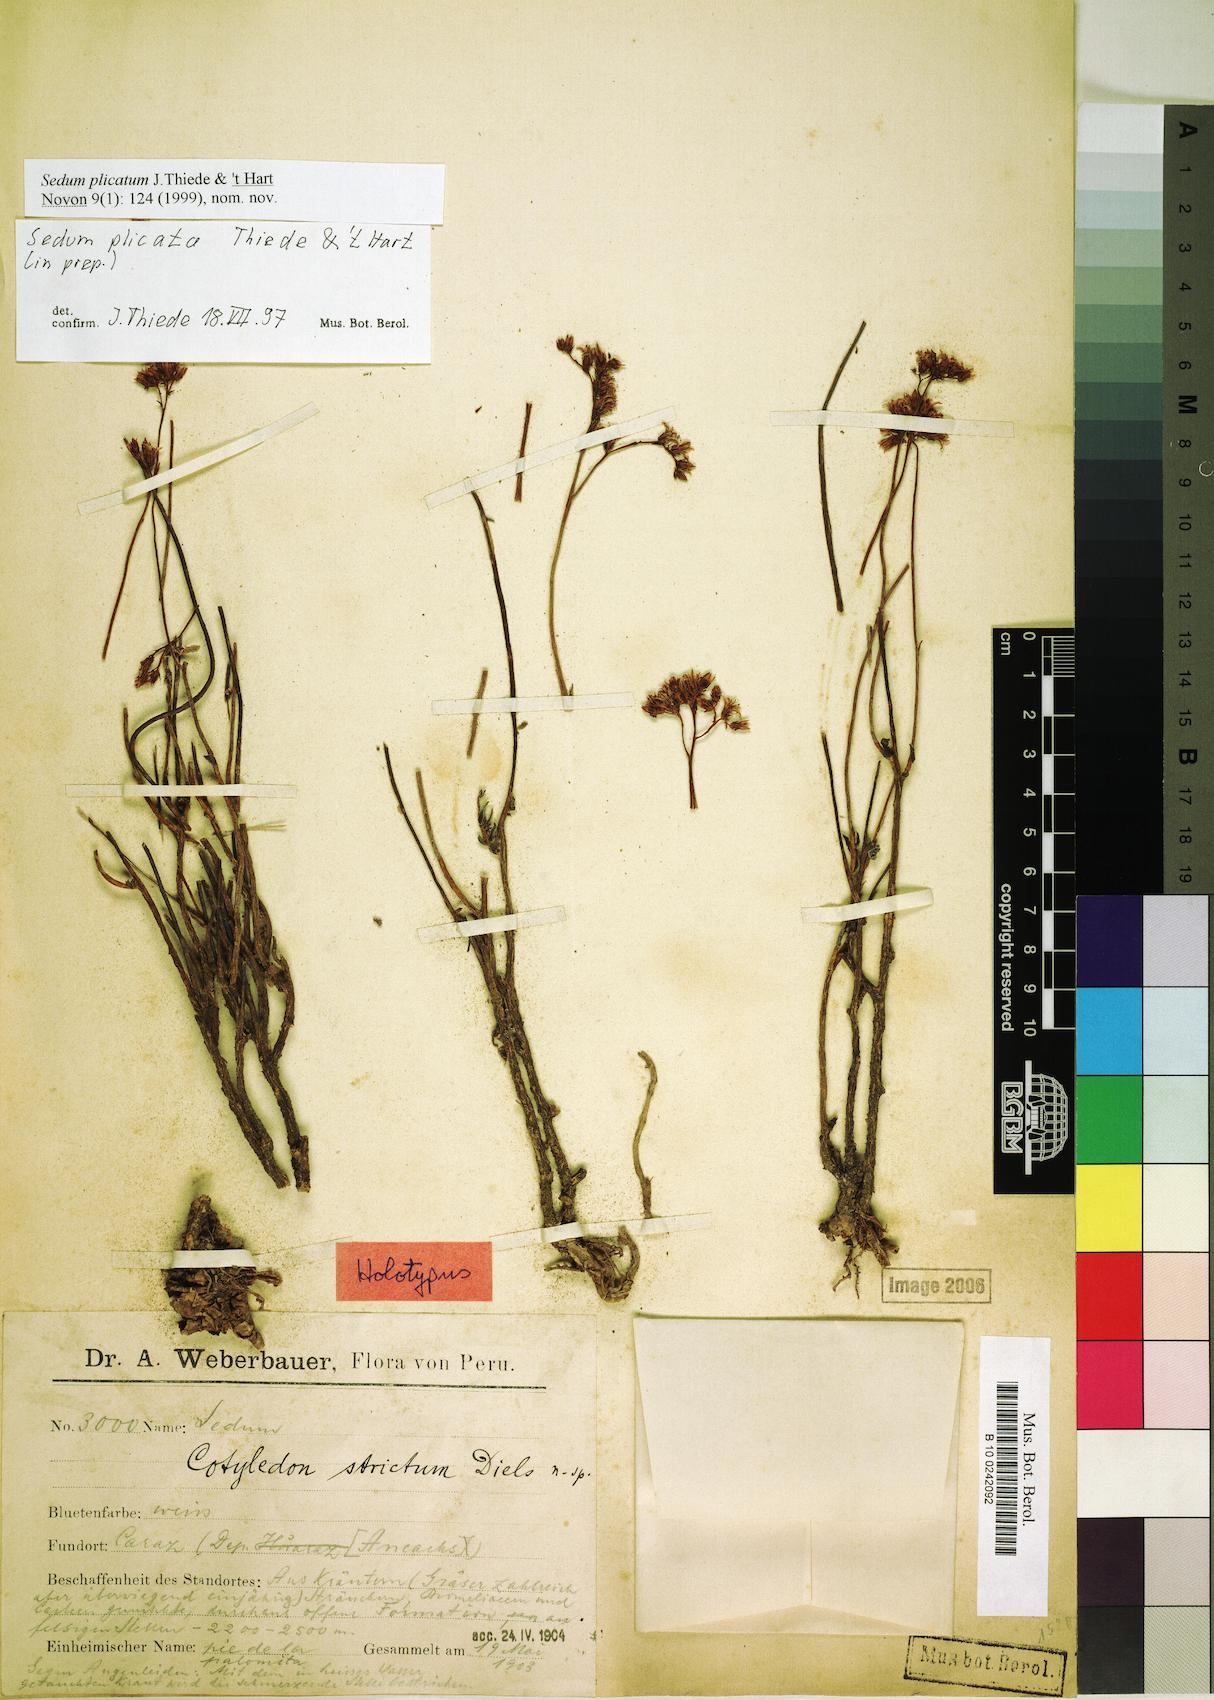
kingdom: Plantae
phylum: Tracheophyta
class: Magnoliopsida
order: Saxifragales
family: Crassulaceae
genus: Sedum
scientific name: Sedum decipiens
